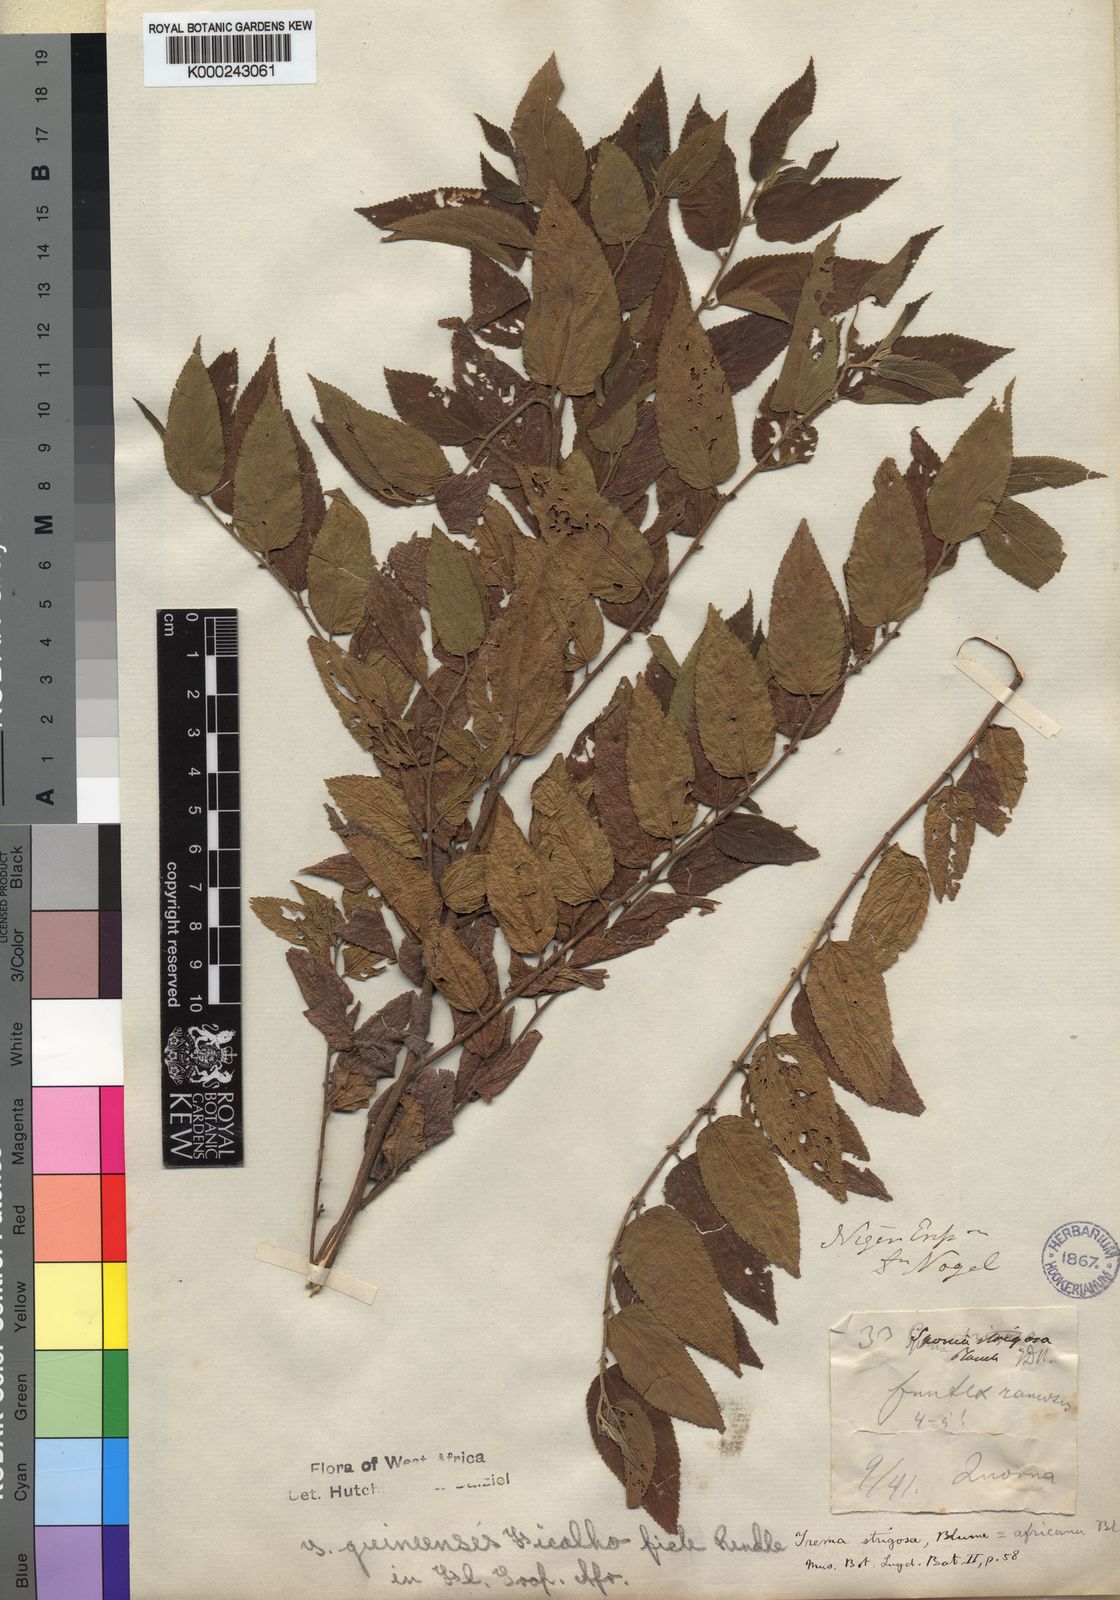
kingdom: Plantae
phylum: Tracheophyta
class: Magnoliopsida
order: Rosales
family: Cannabaceae
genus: Trema
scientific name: Trema orientale
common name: Indian charcoal tree
